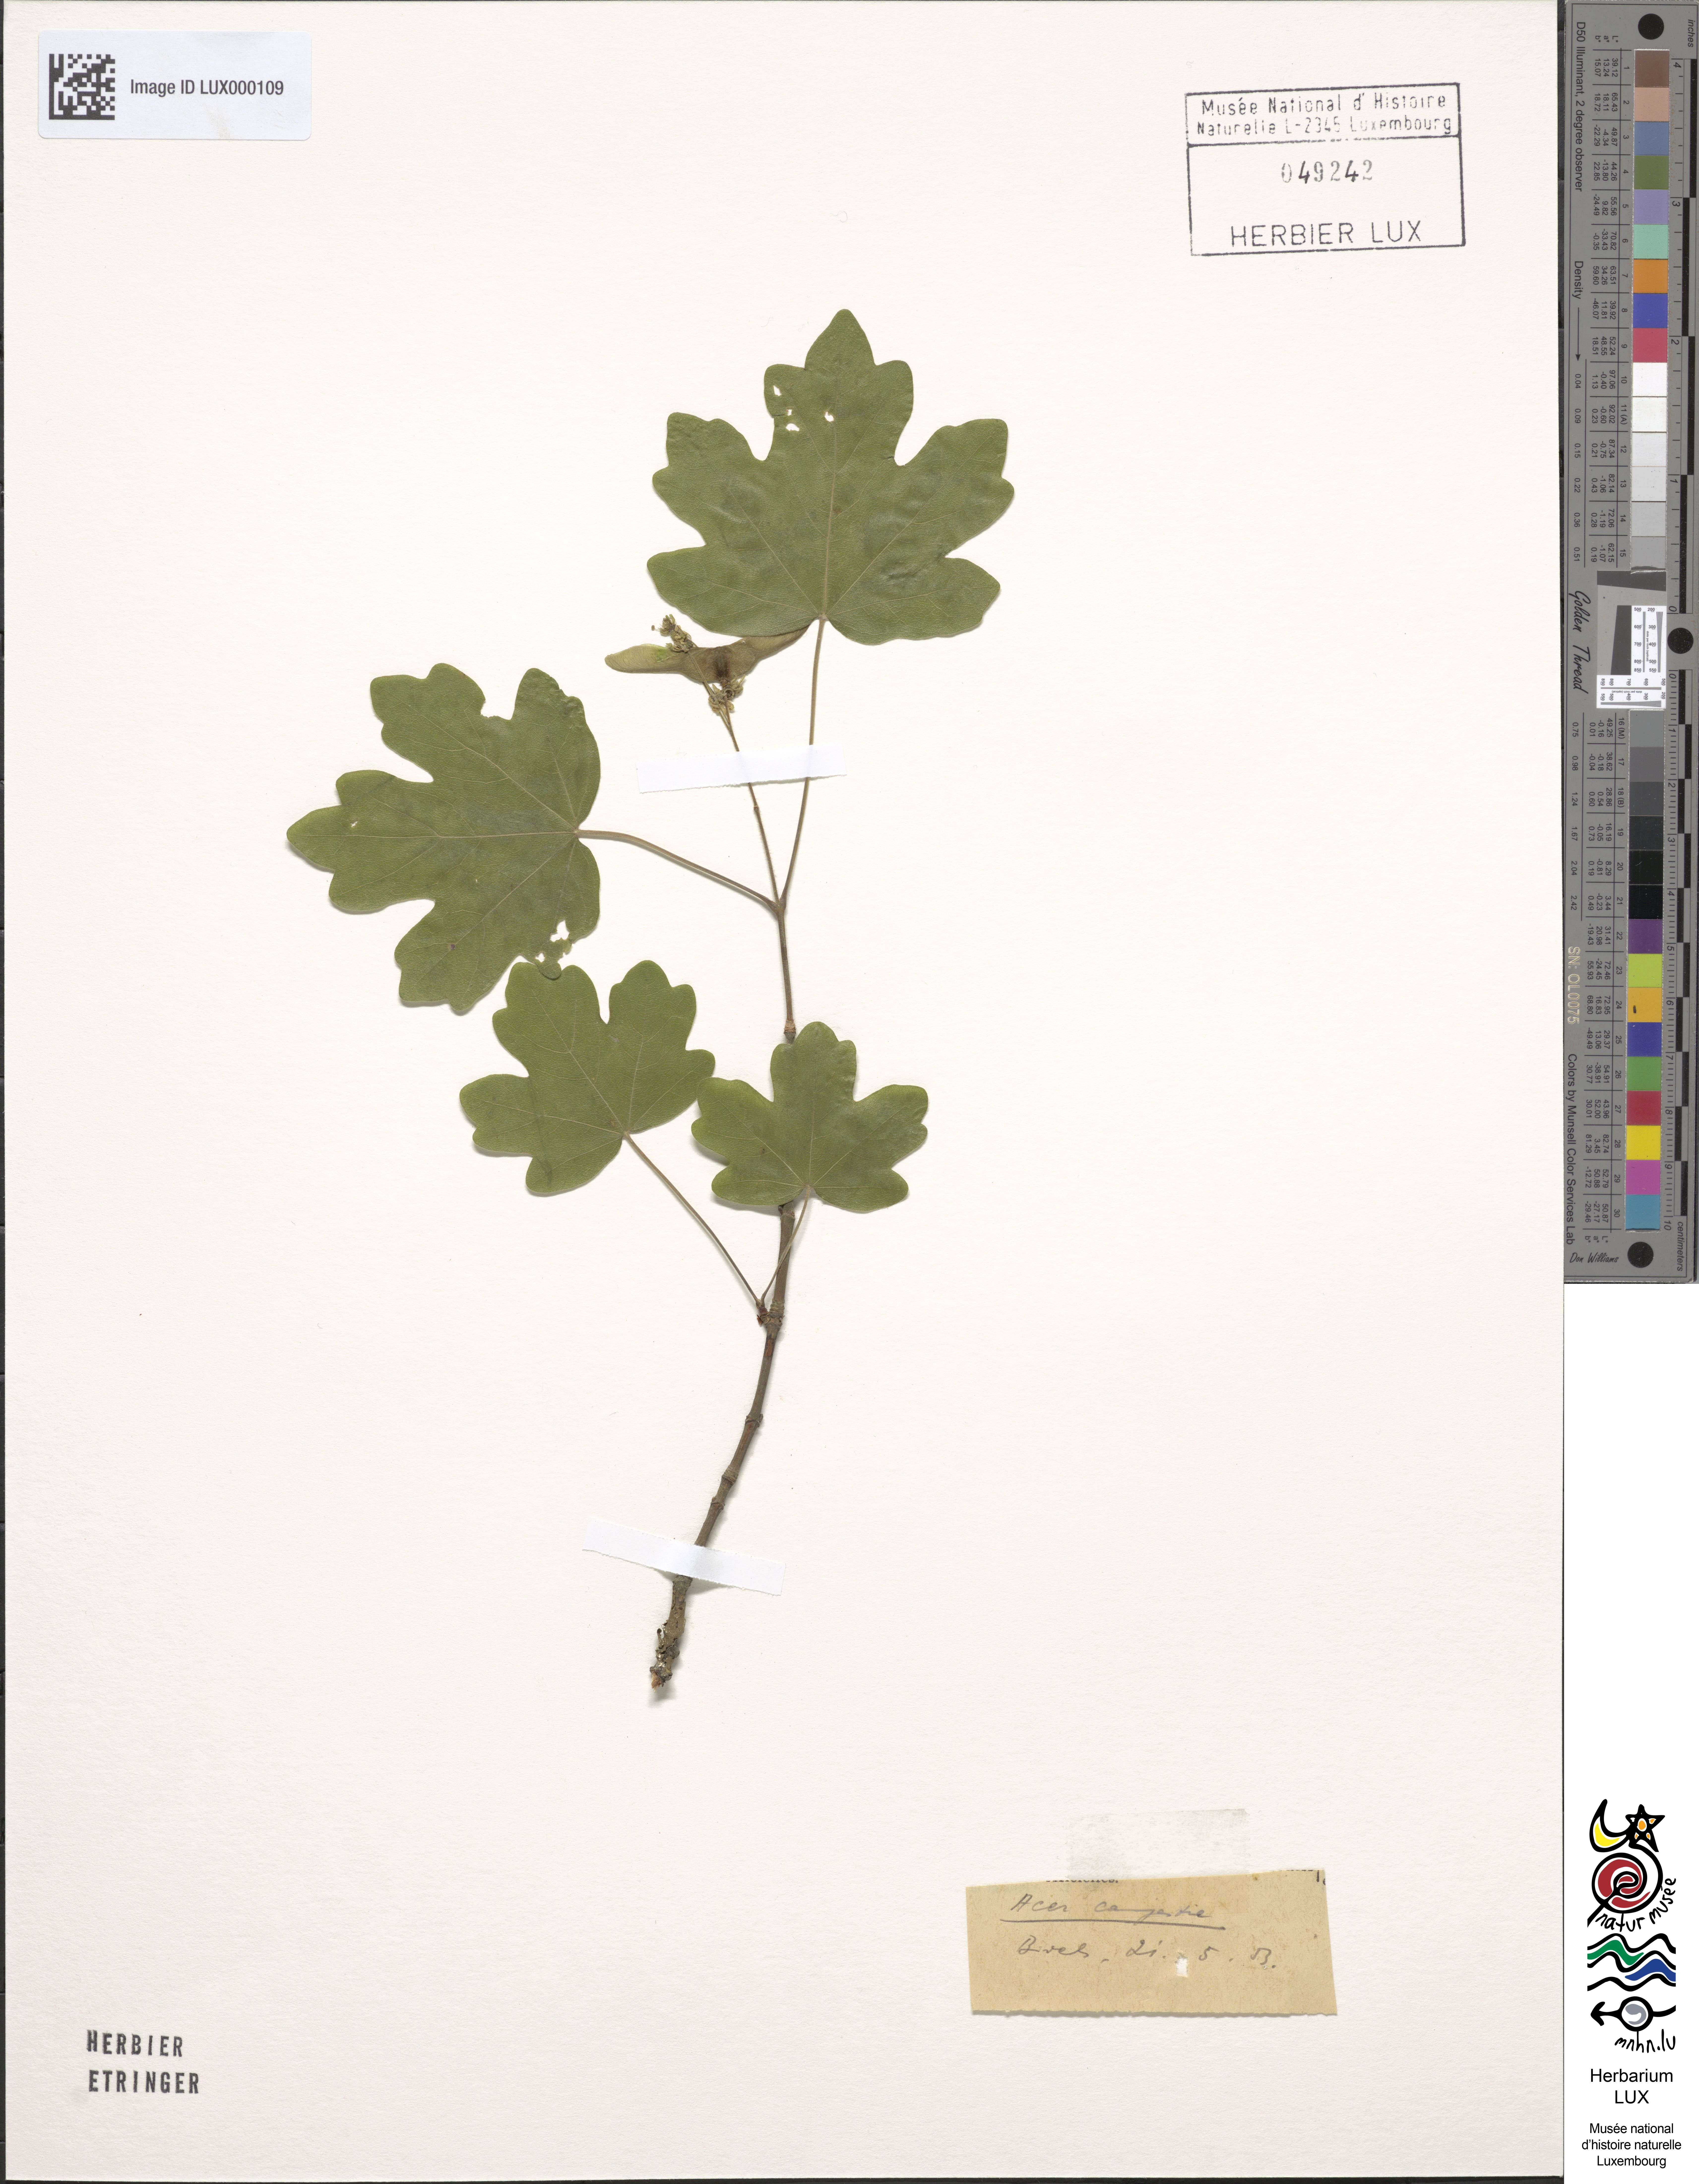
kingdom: Plantae
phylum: Tracheophyta
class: Magnoliopsida
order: Sapindales
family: Sapindaceae
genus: Acer
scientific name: Acer campestre
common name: Field maple
